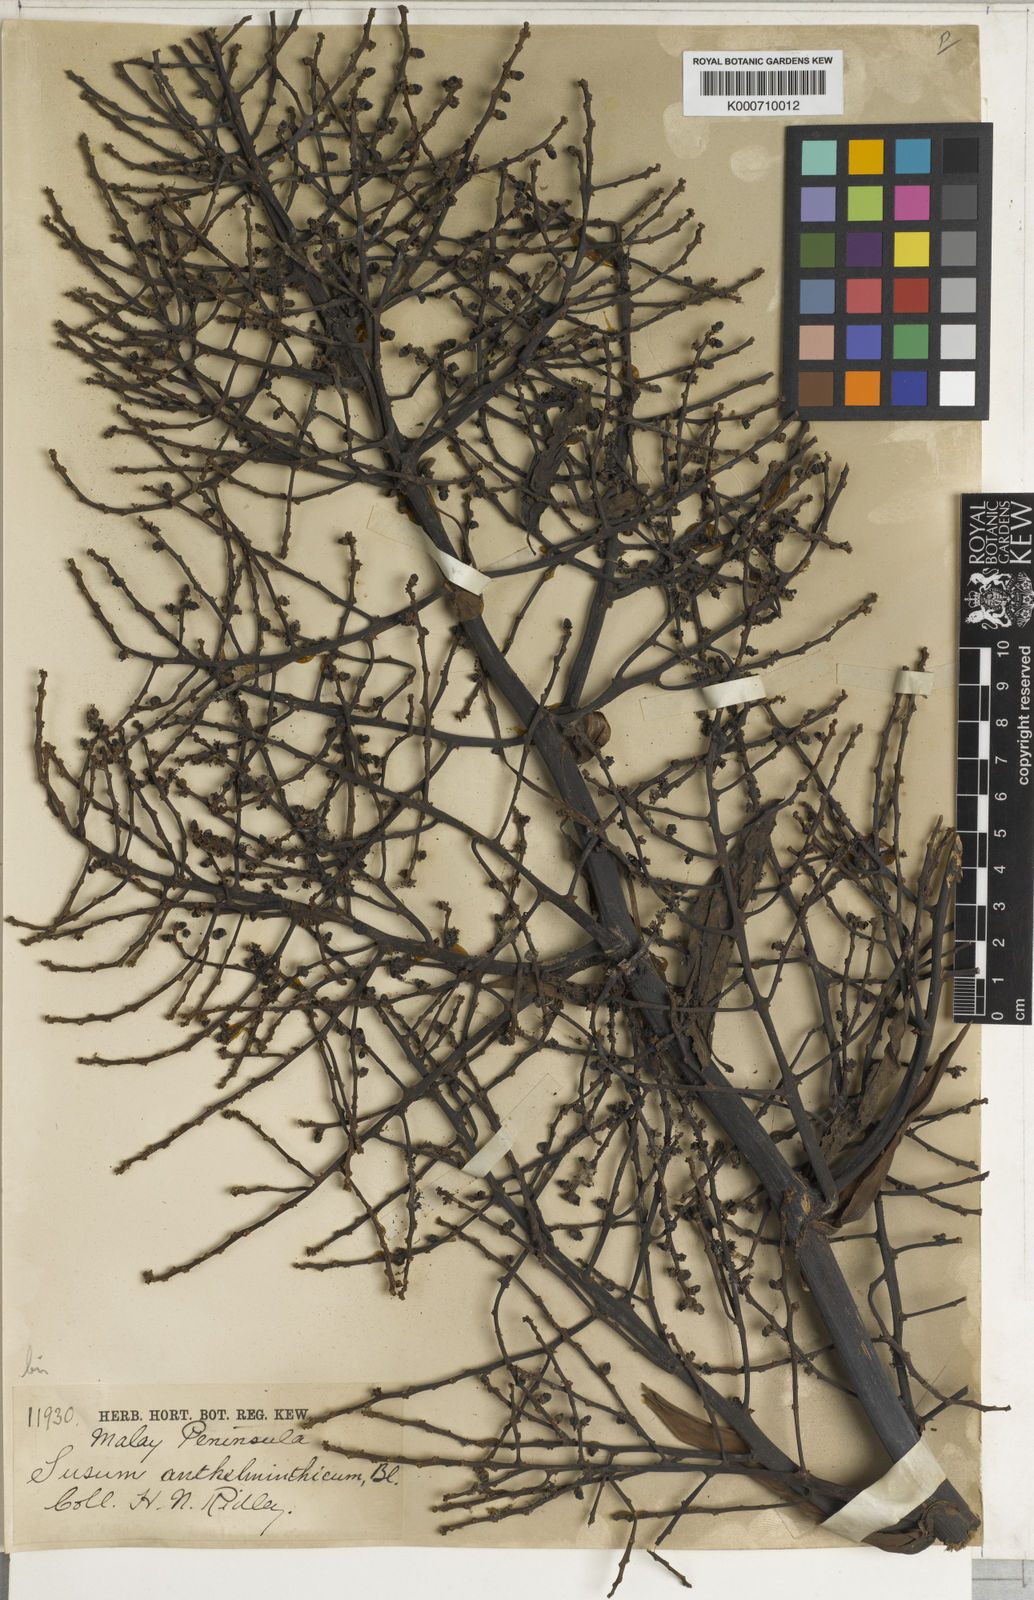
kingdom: Plantae
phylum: Tracheophyta
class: Liliopsida
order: Commelinales
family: Hanguanaceae
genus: Hanguana
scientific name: Hanguana malayana
